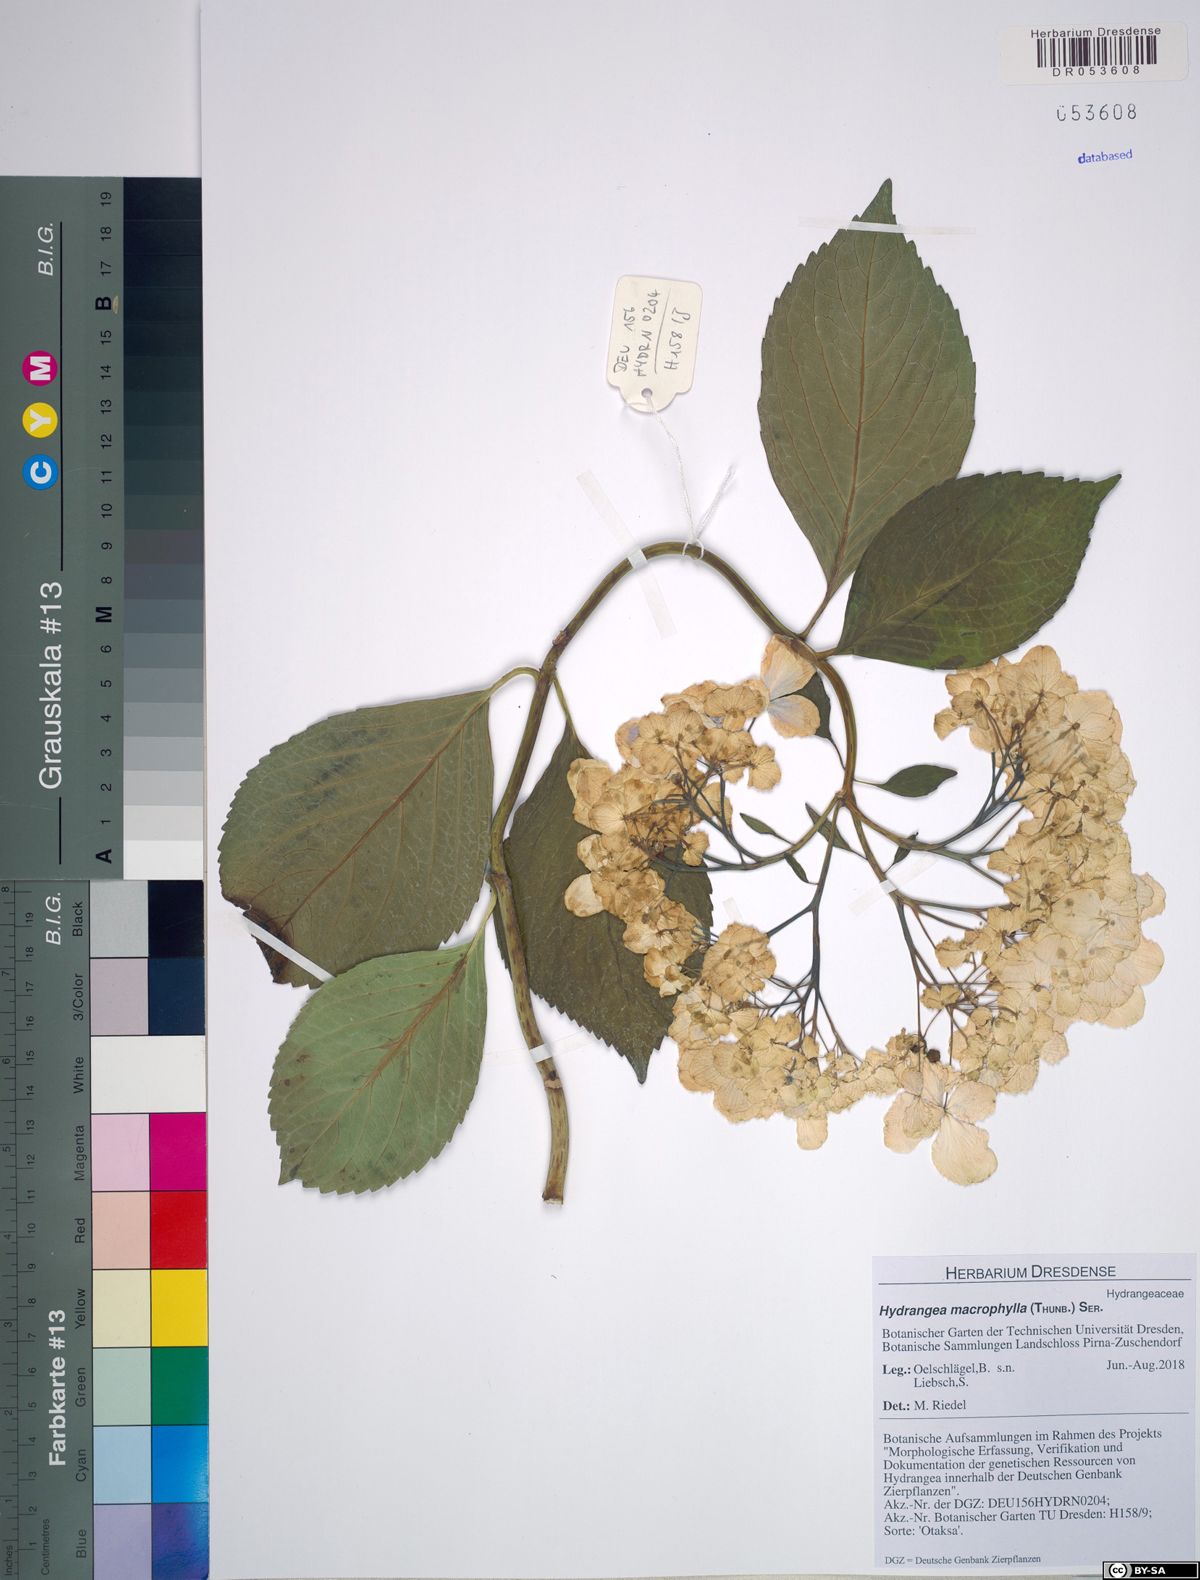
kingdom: Plantae
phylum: Tracheophyta
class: Magnoliopsida
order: Cornales
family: Hydrangeaceae
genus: Hydrangea
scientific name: Hydrangea macrophylla
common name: Hydrangea
